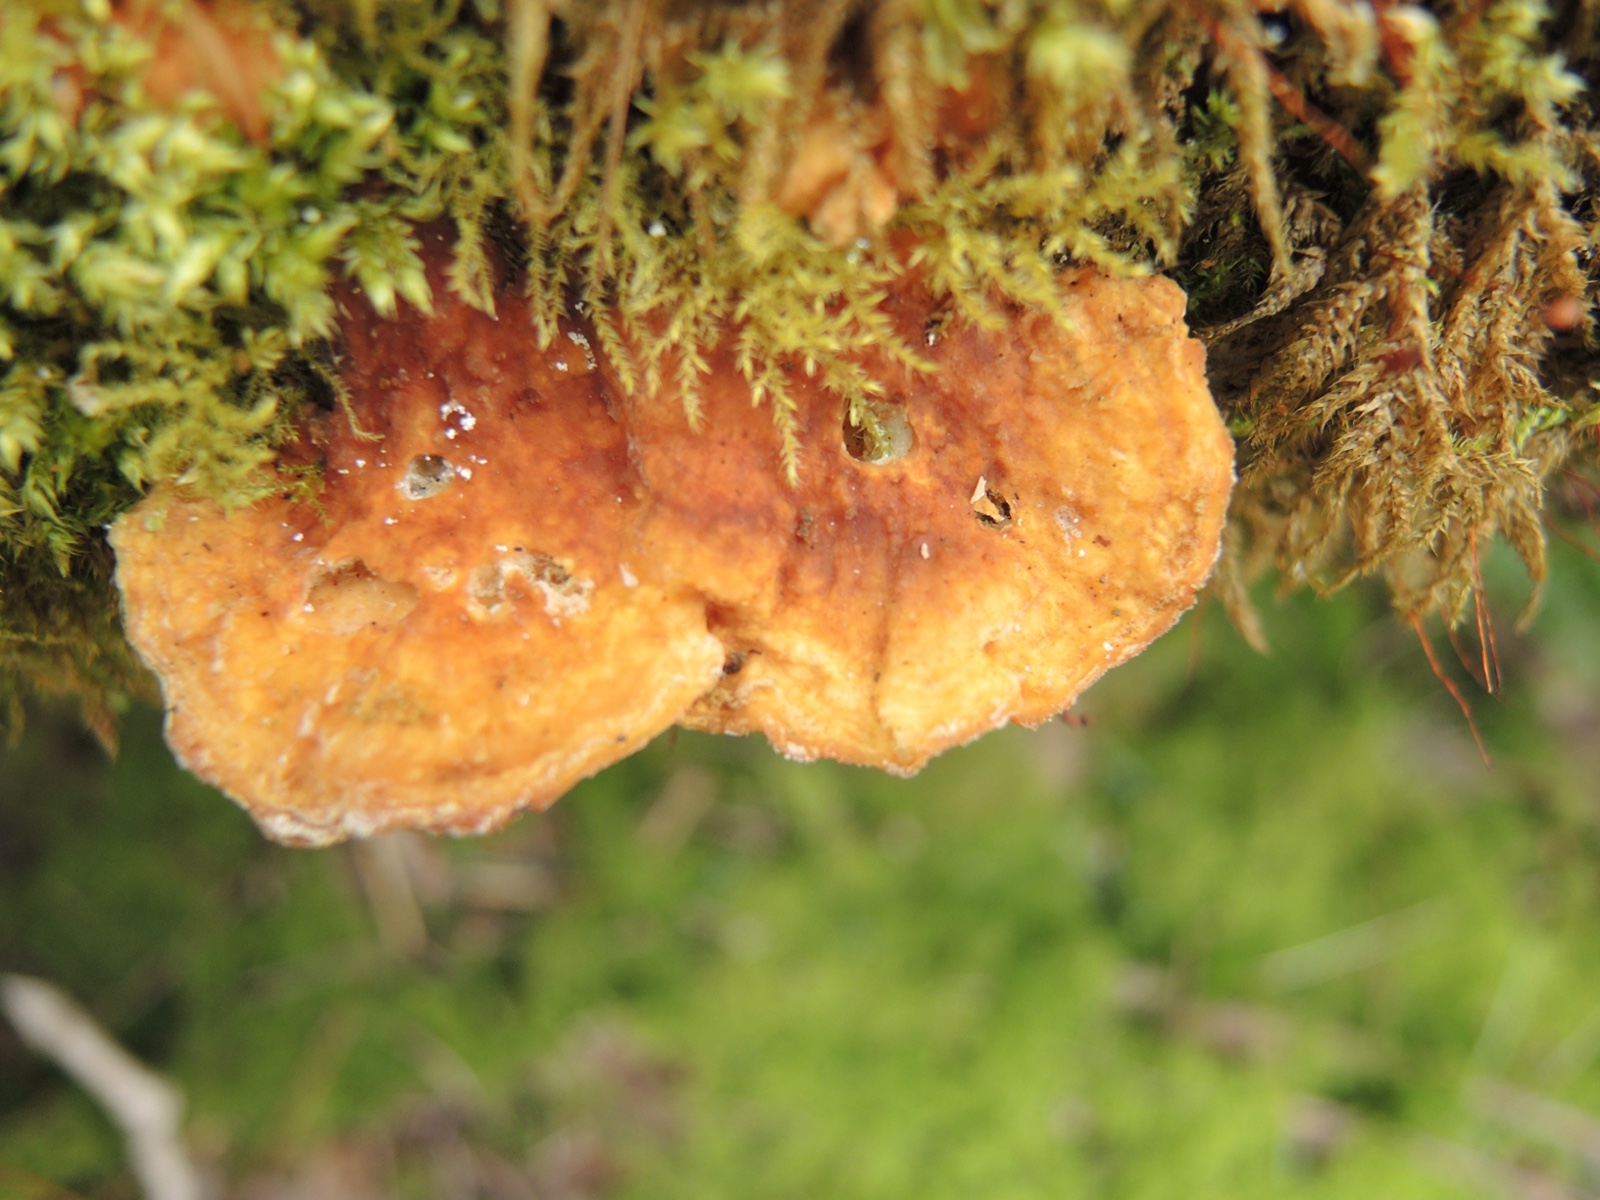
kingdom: Fungi
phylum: Basidiomycota
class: Agaricomycetes
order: Polyporales
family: Polyporaceae
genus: Trametes
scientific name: Trametes ochracea
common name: bæltet læderporesvamp
